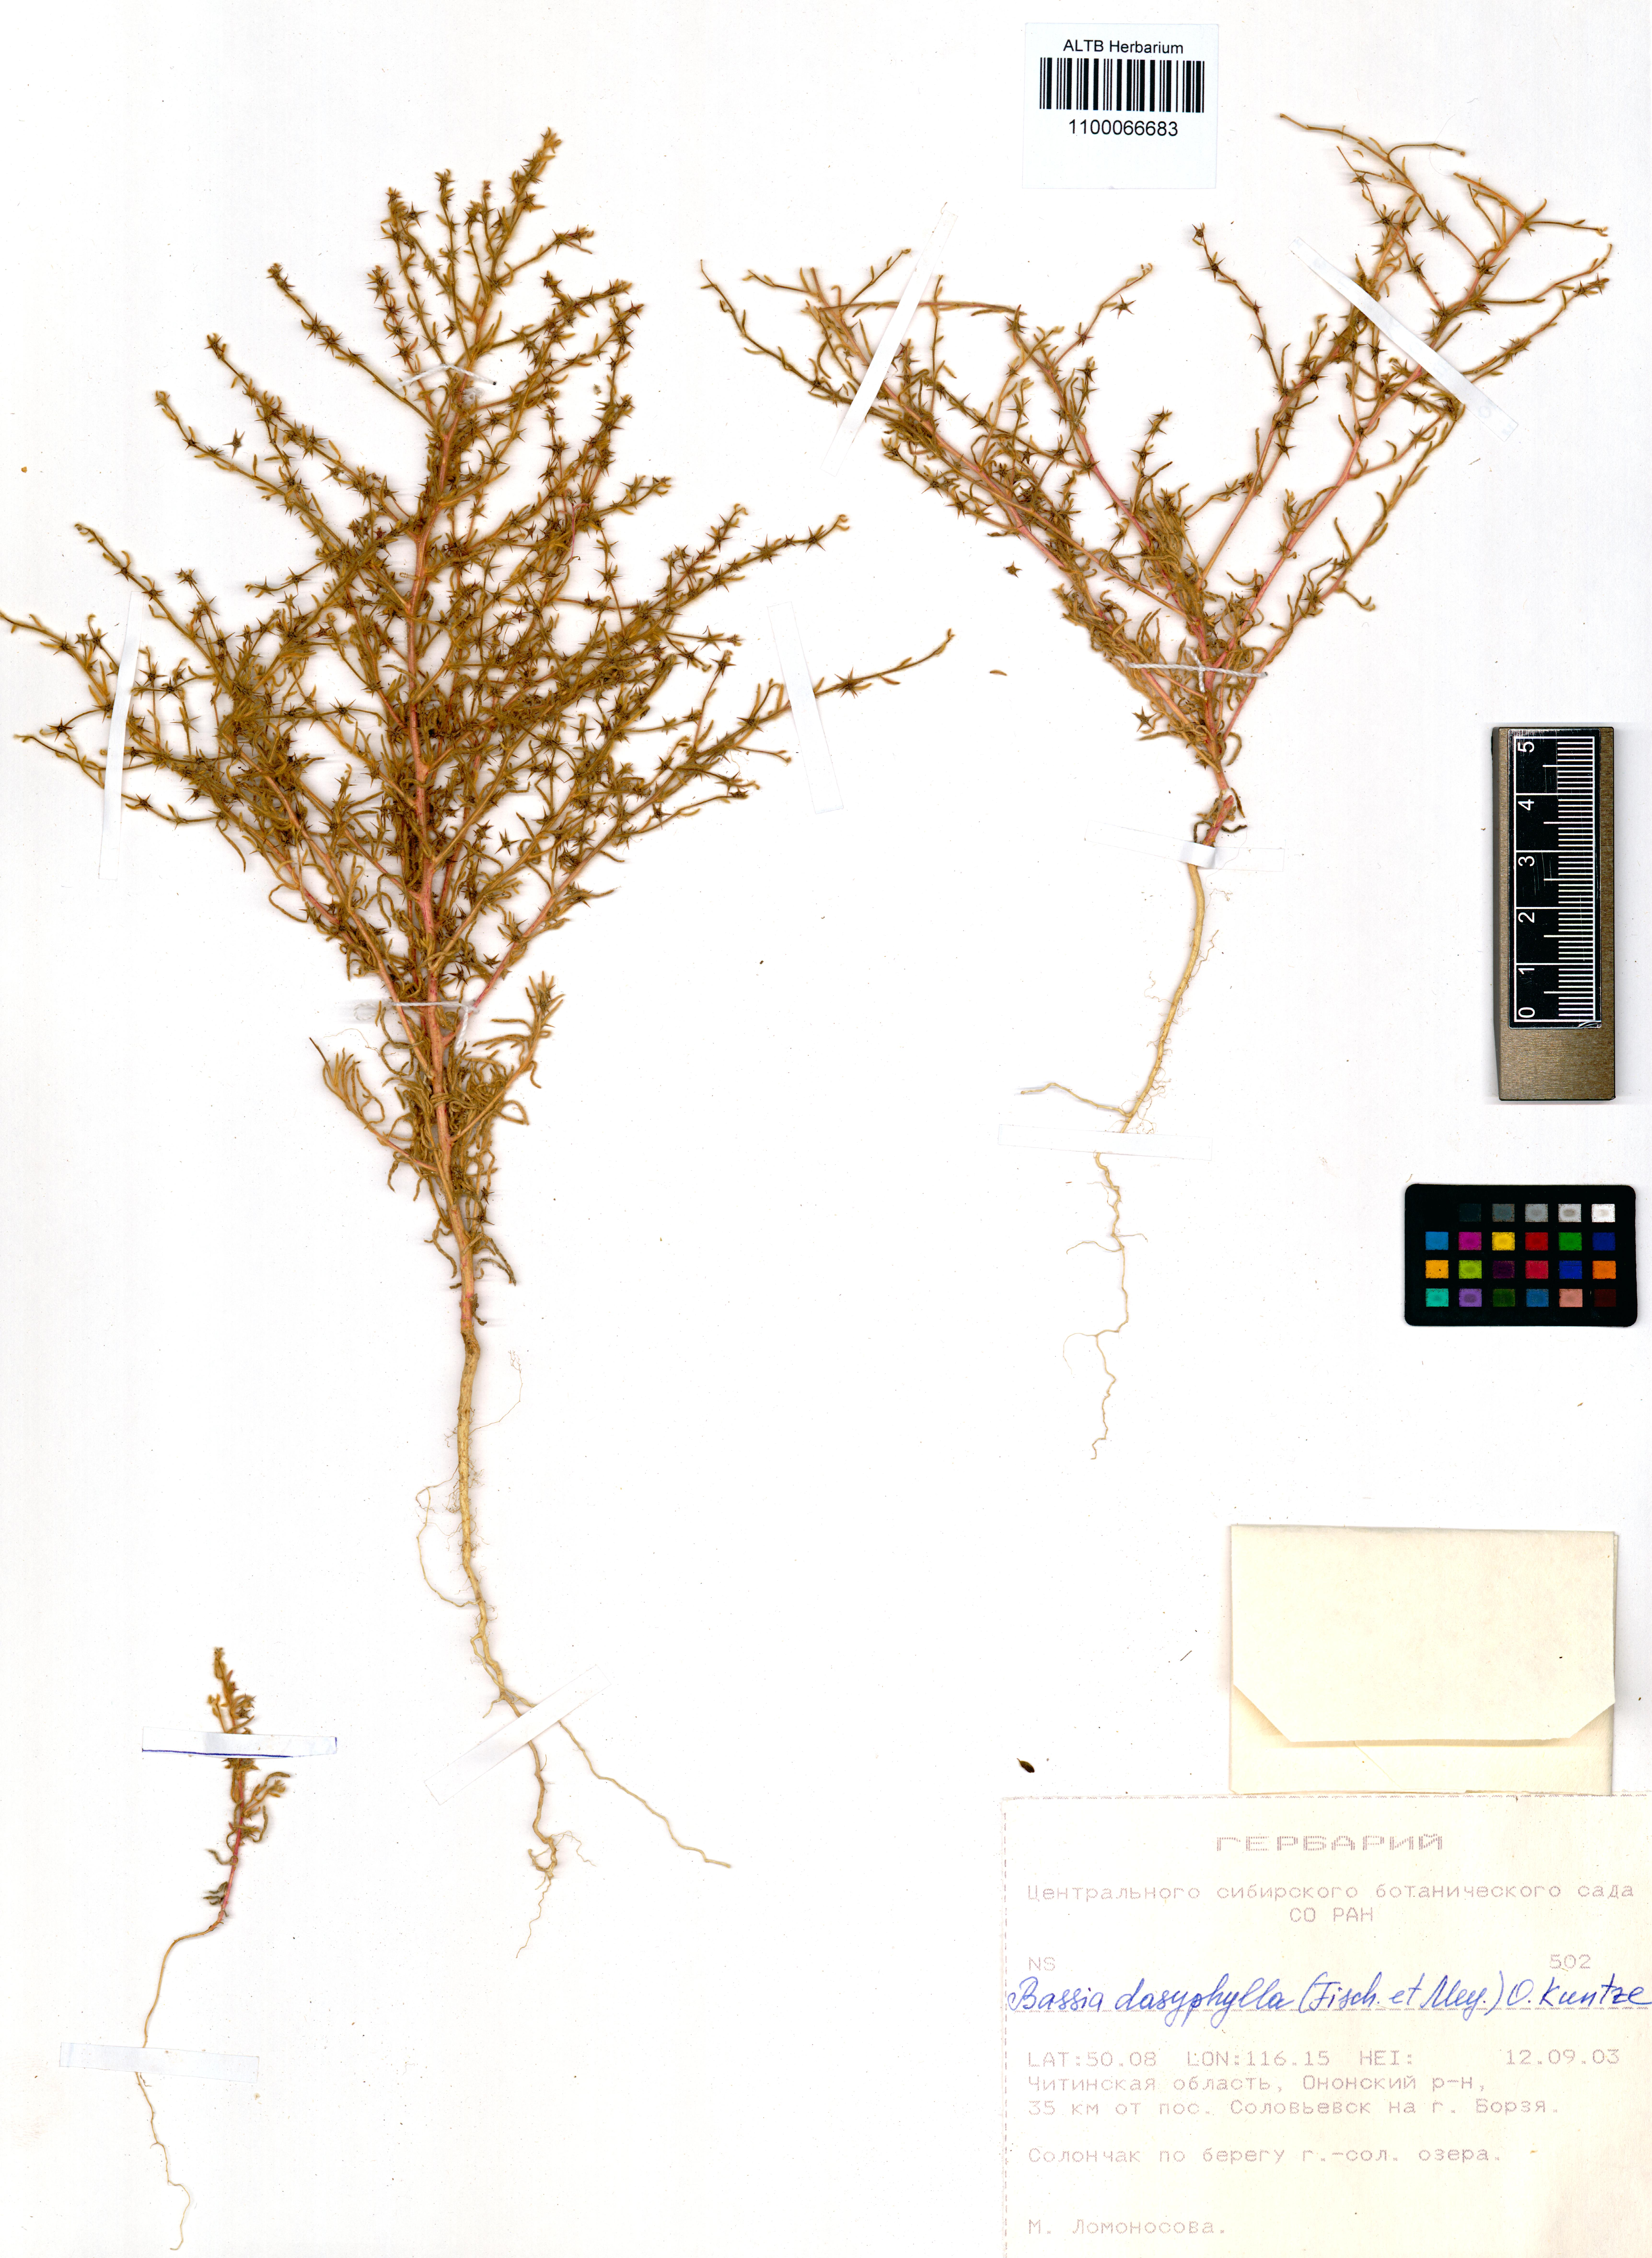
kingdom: Plantae
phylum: Tracheophyta
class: Magnoliopsida
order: Caryophyllales
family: Amaranthaceae
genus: Grubovia
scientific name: Grubovia dasyphylla
